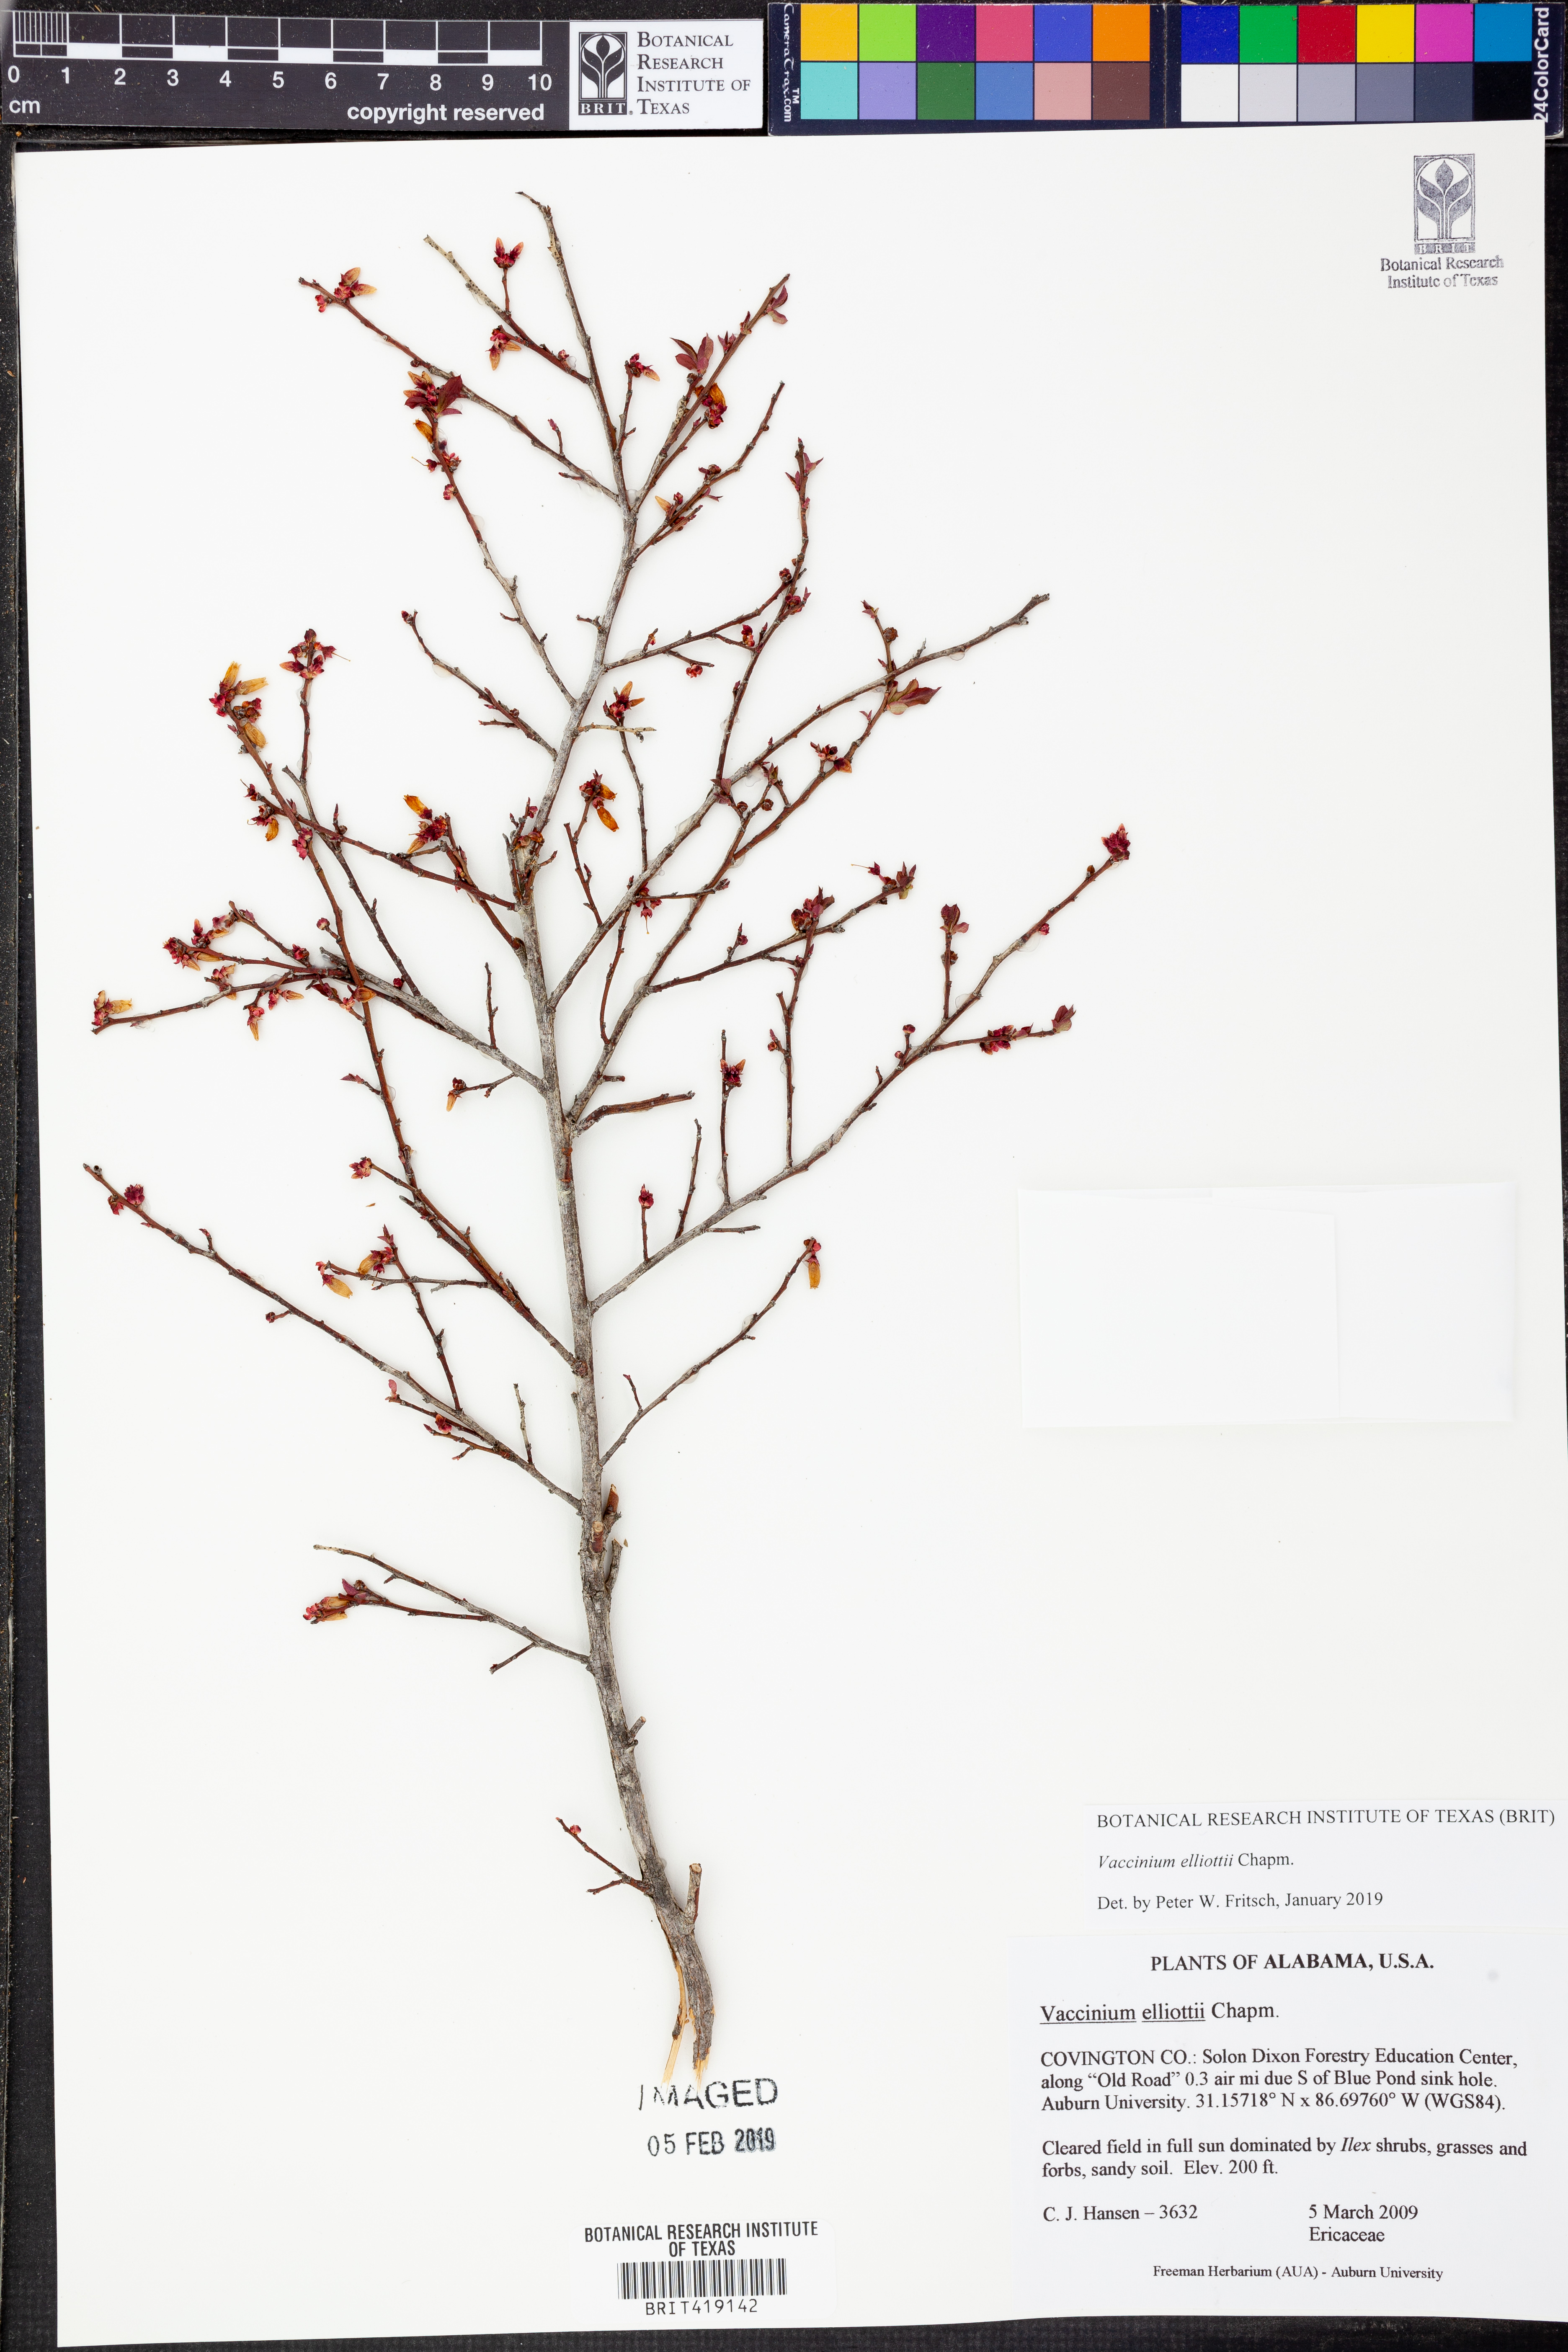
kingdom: Plantae
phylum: Tracheophyta
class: Magnoliopsida
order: Ericales
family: Ericaceae
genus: Vaccinium
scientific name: Vaccinium corymbosum
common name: Blueberry
